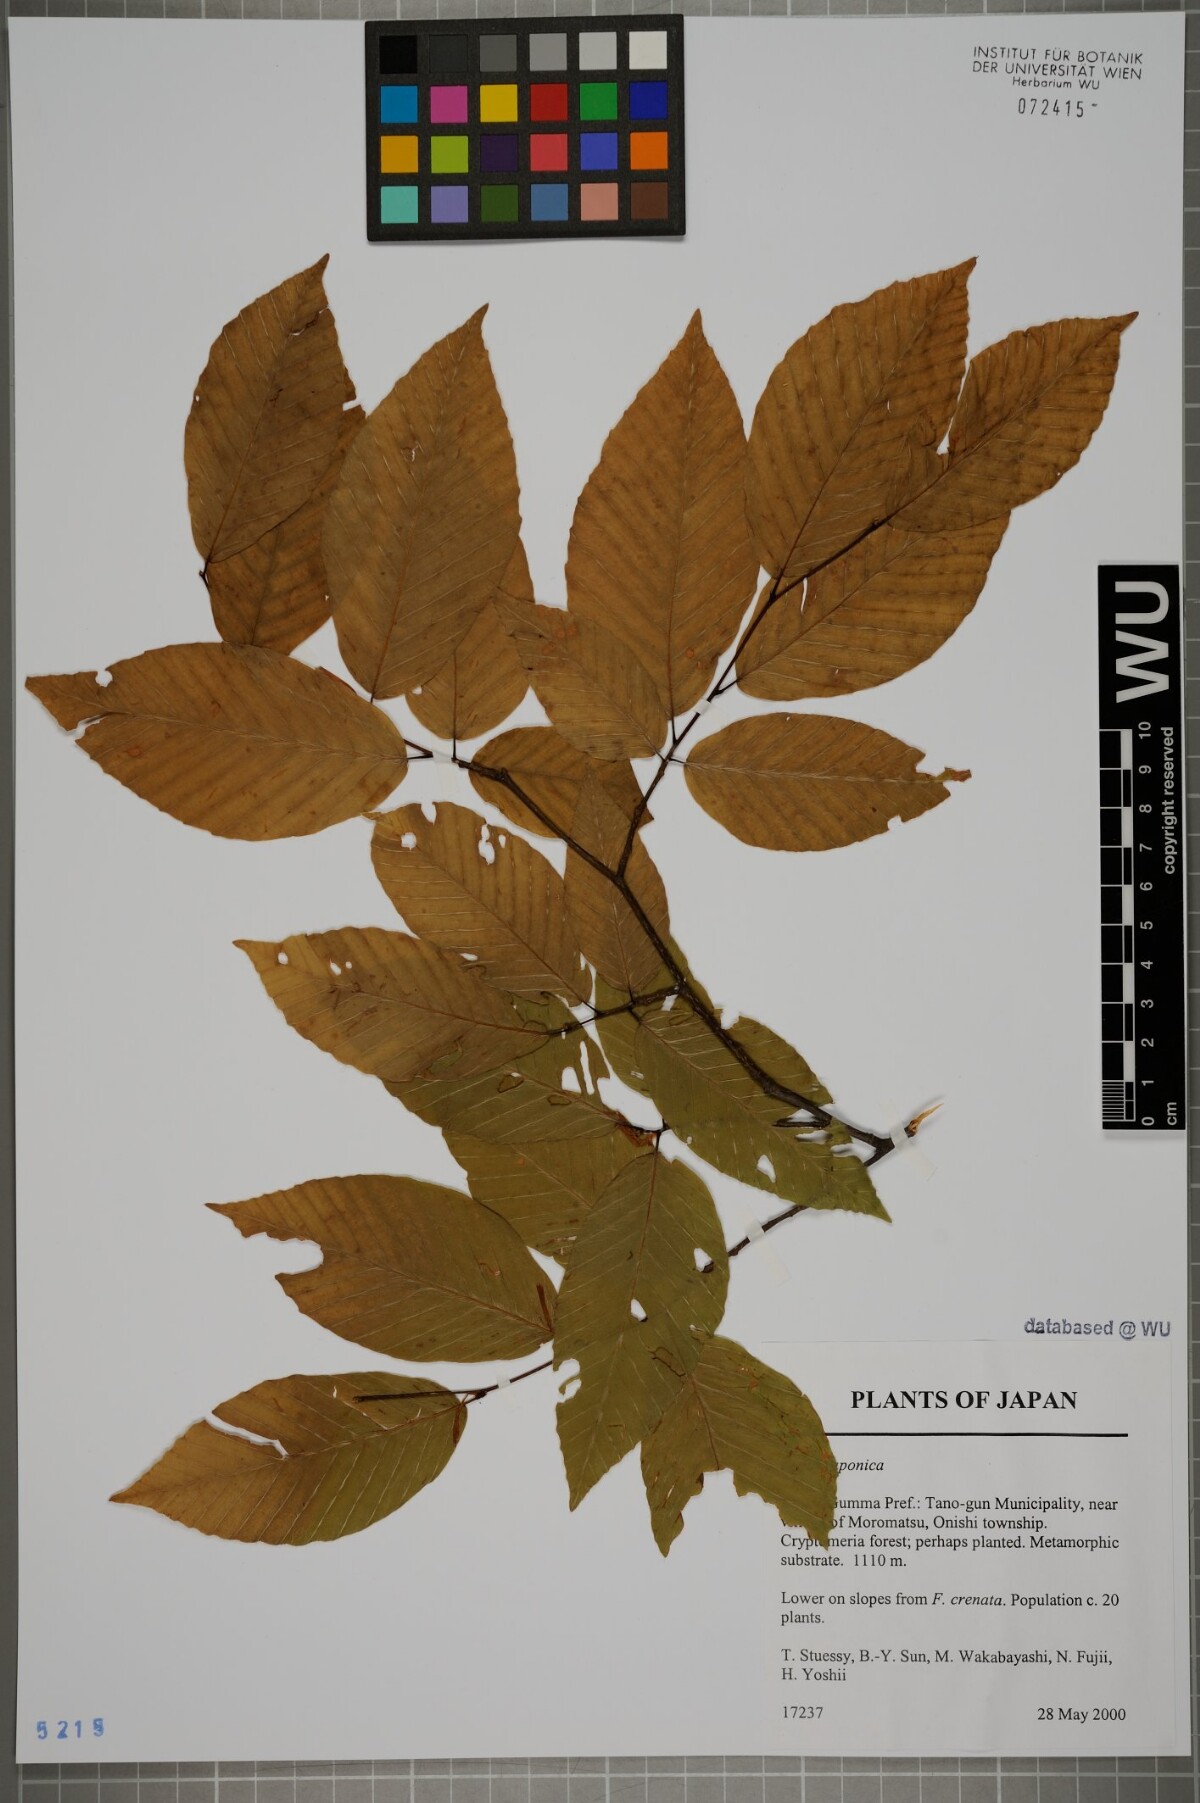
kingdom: Plantae
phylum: Tracheophyta
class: Magnoliopsida
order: Fagales
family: Fagaceae
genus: Fagus
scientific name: Fagus japonica
